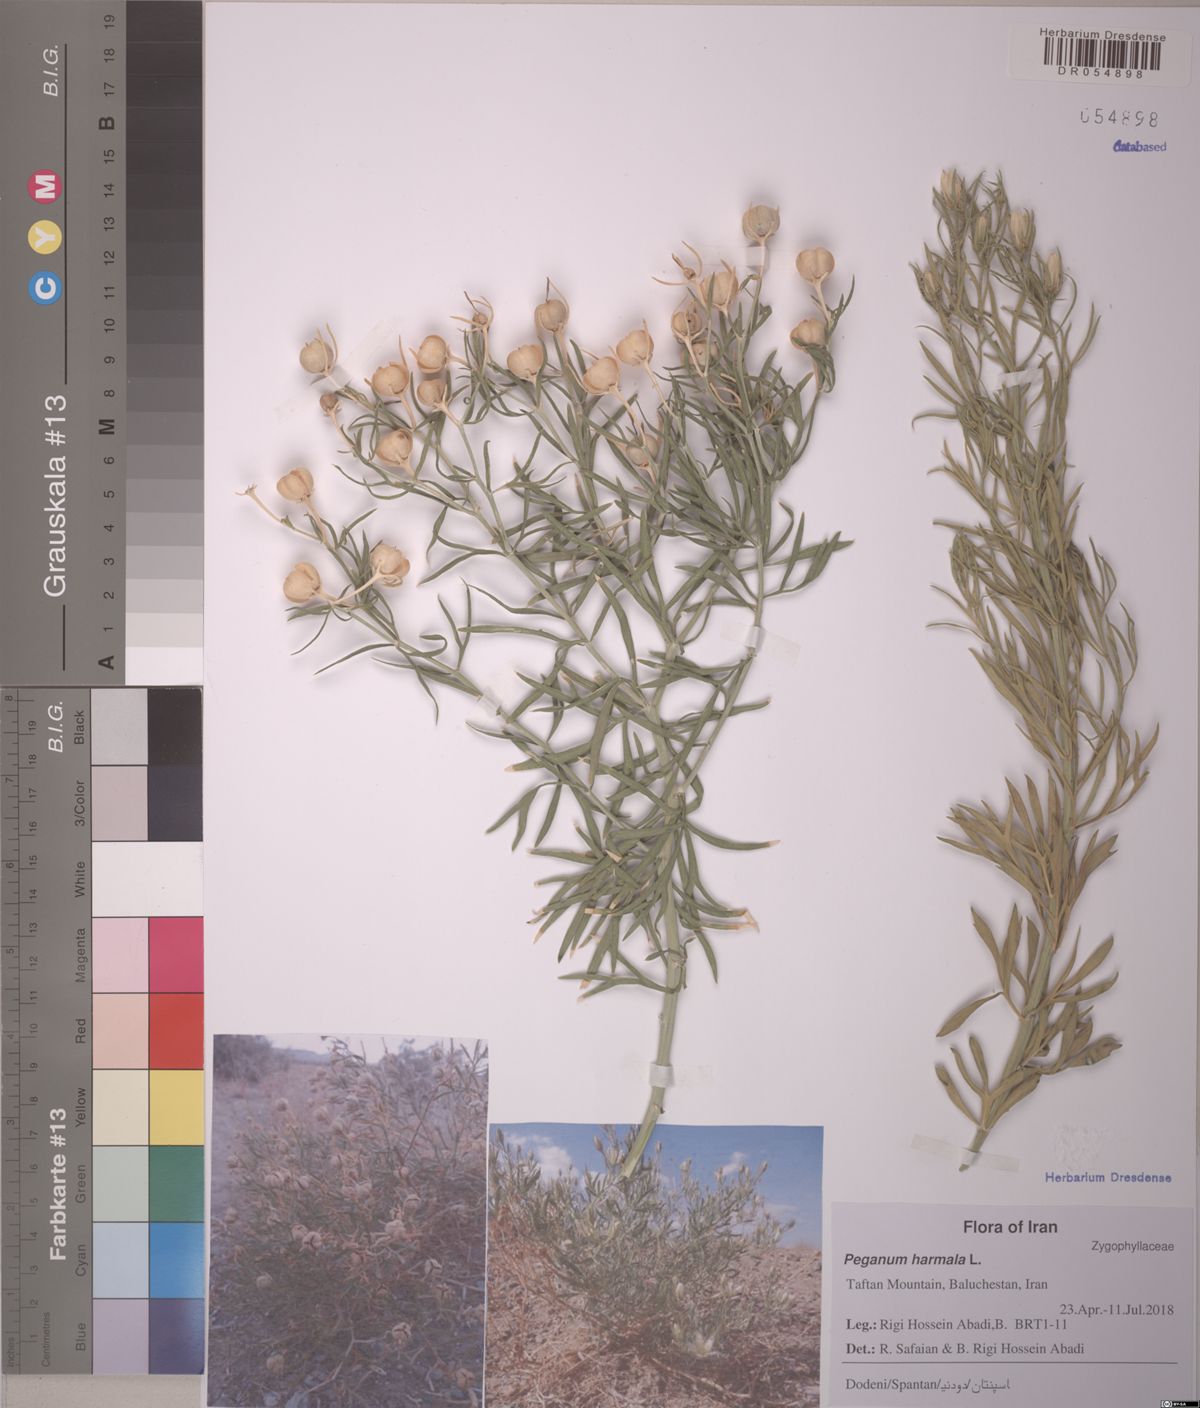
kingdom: Plantae
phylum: Tracheophyta
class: Magnoliopsida
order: Sapindales
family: Tetradiclidaceae
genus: Peganum
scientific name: Peganum harmala
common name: Harmal peganum
